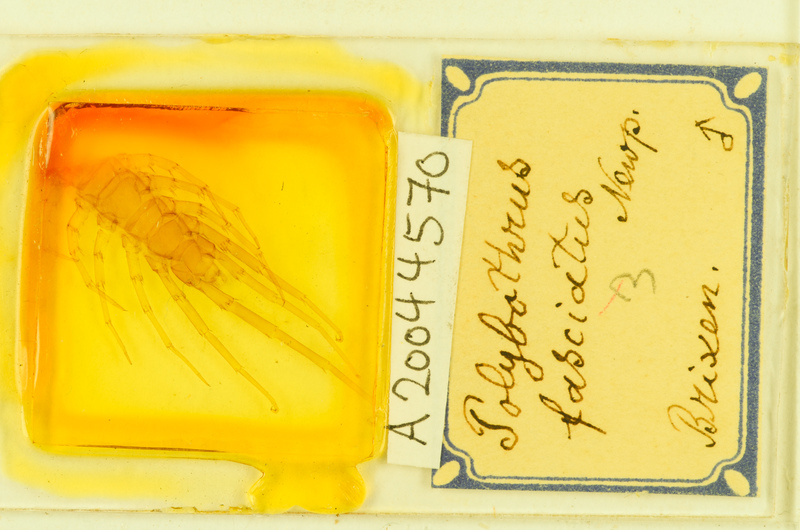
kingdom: Animalia
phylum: Arthropoda
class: Chilopoda
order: Lithobiomorpha
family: Lithobiidae
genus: Polybothrus
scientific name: Polybothrus fasciatus
